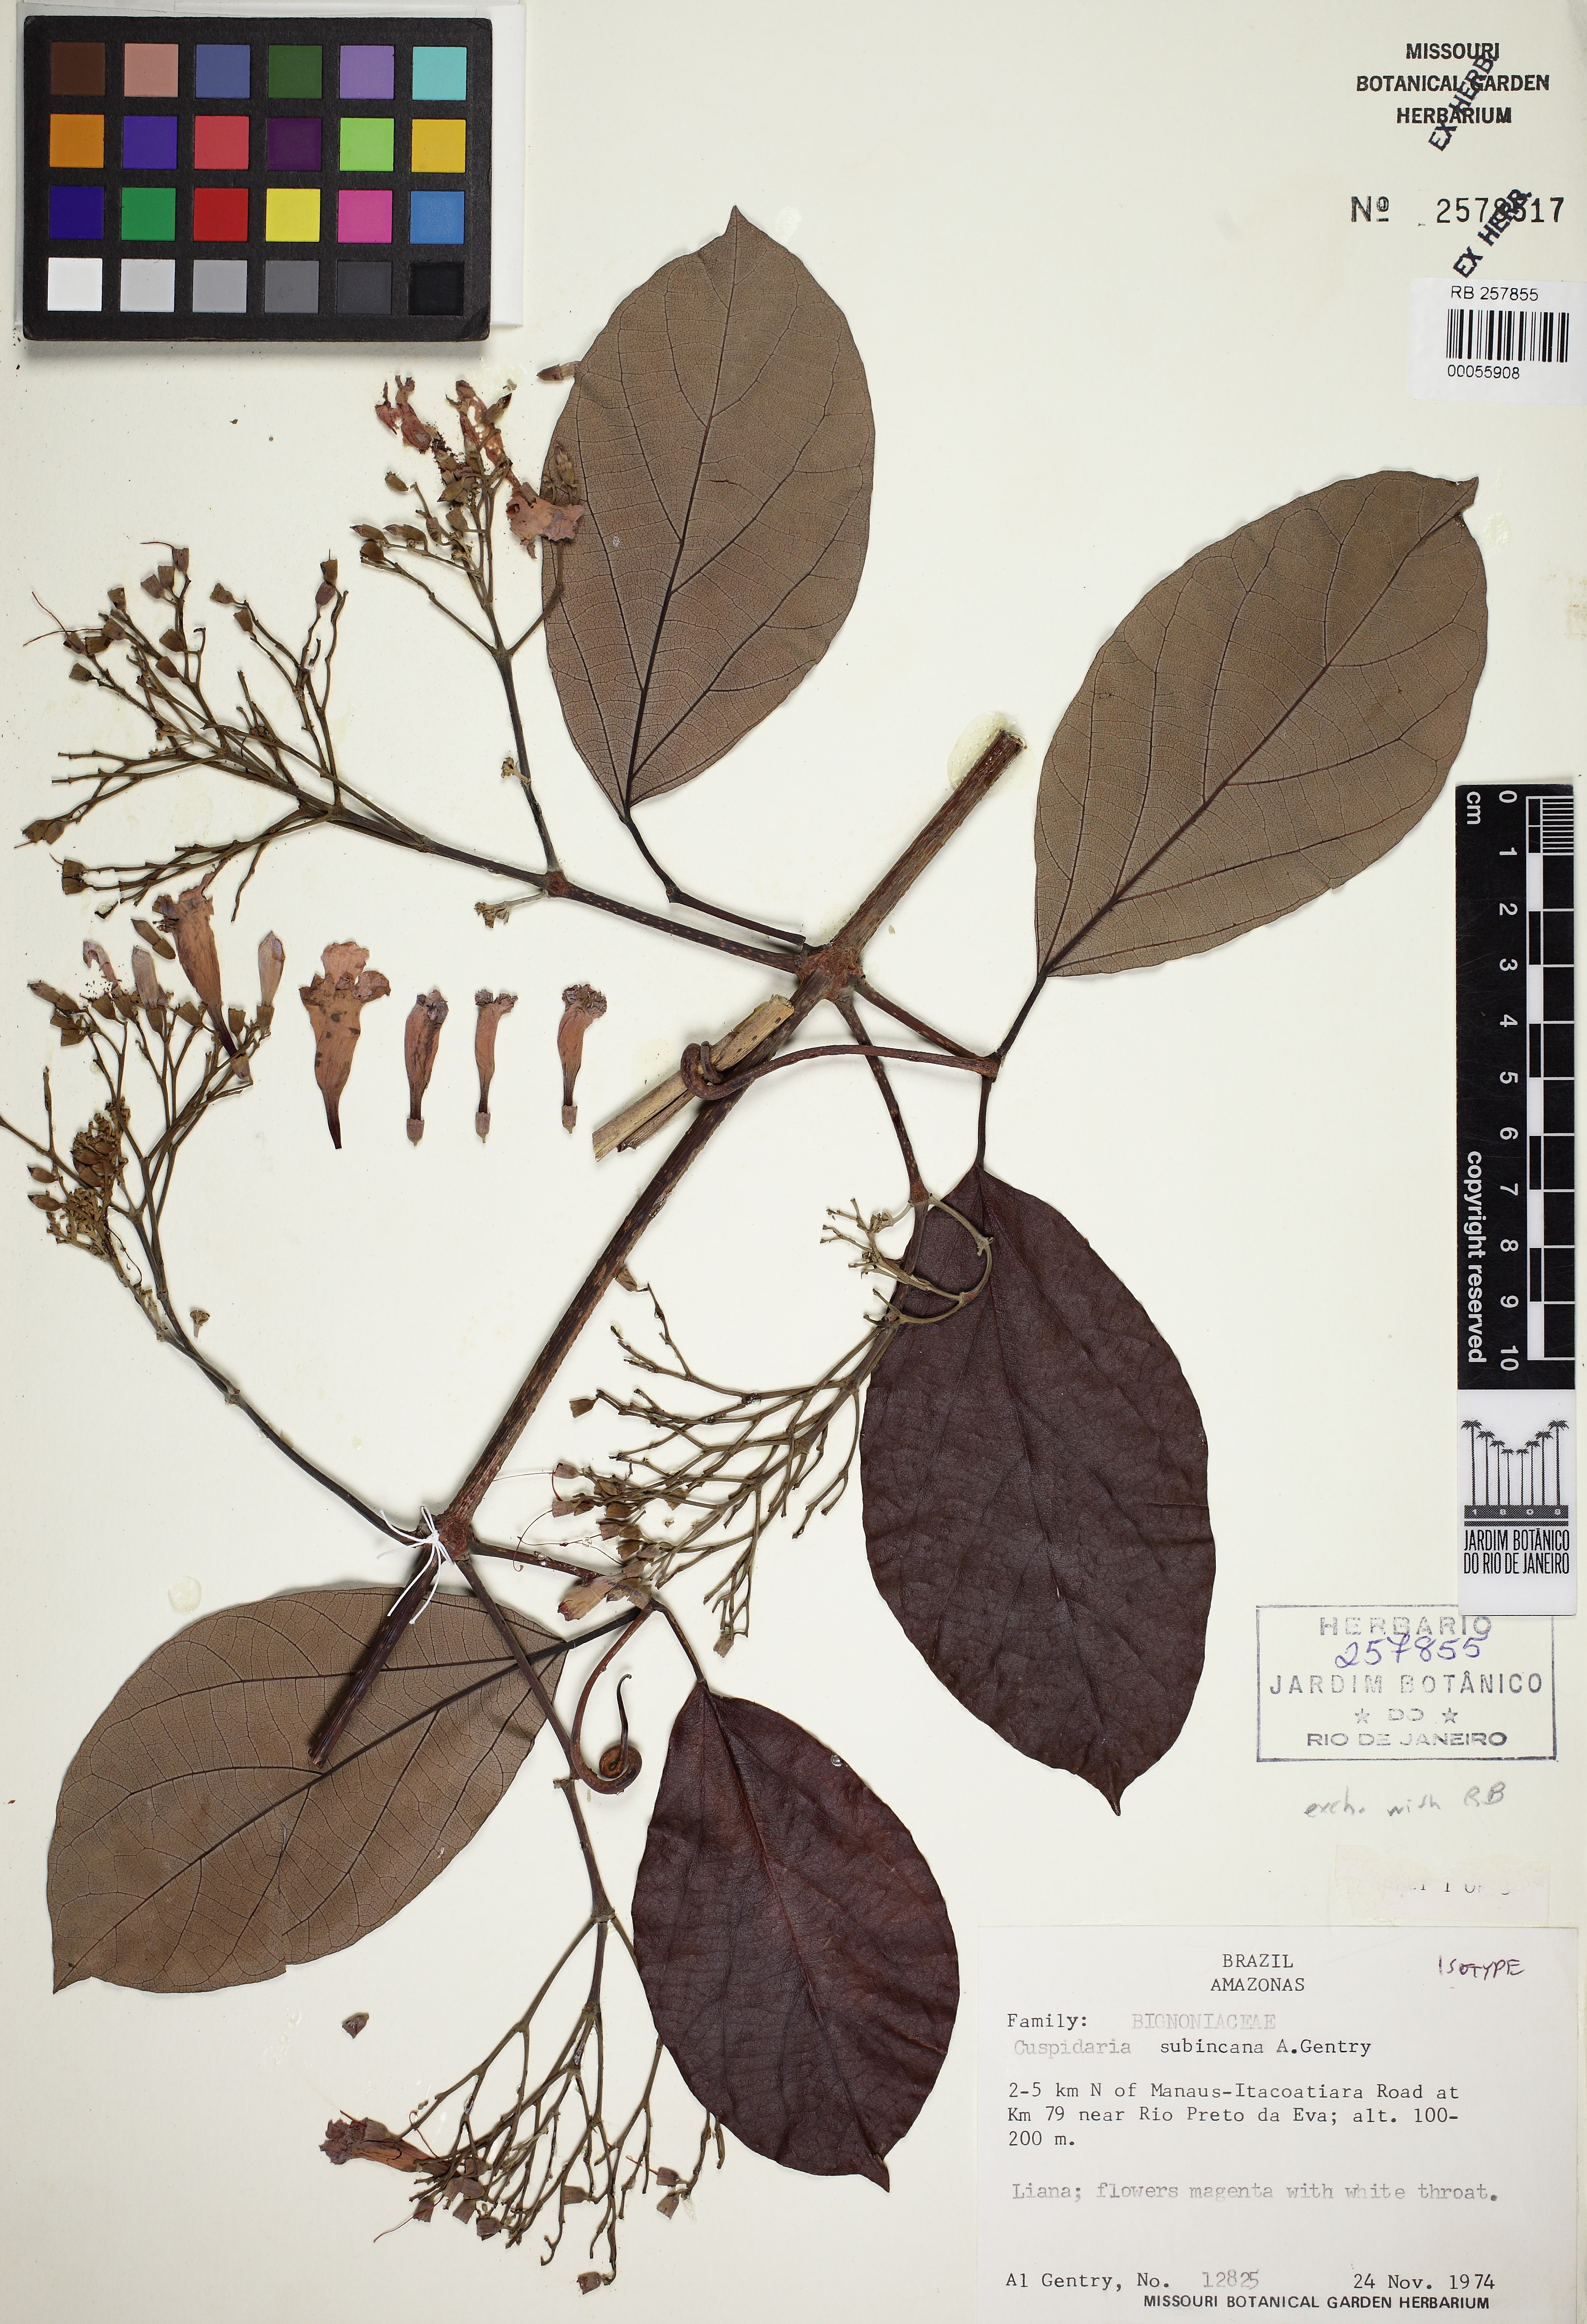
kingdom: Plantae
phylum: Tracheophyta
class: Magnoliopsida
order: Lamiales
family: Bignoniaceae
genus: Cuspidaria
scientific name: Cuspidaria subincana
